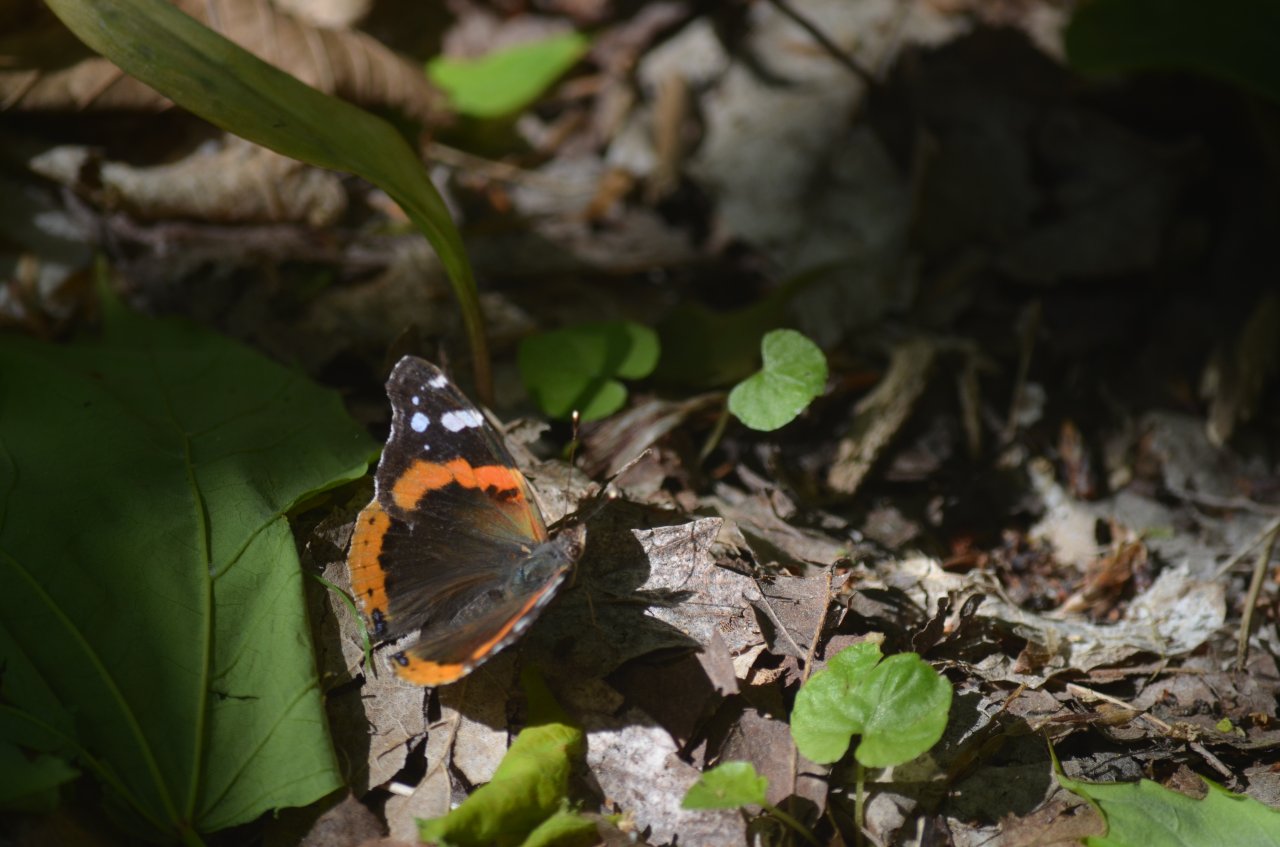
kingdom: Animalia
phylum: Arthropoda
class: Insecta
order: Lepidoptera
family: Nymphalidae
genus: Vanessa
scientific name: Vanessa atalanta
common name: Red Admiral
